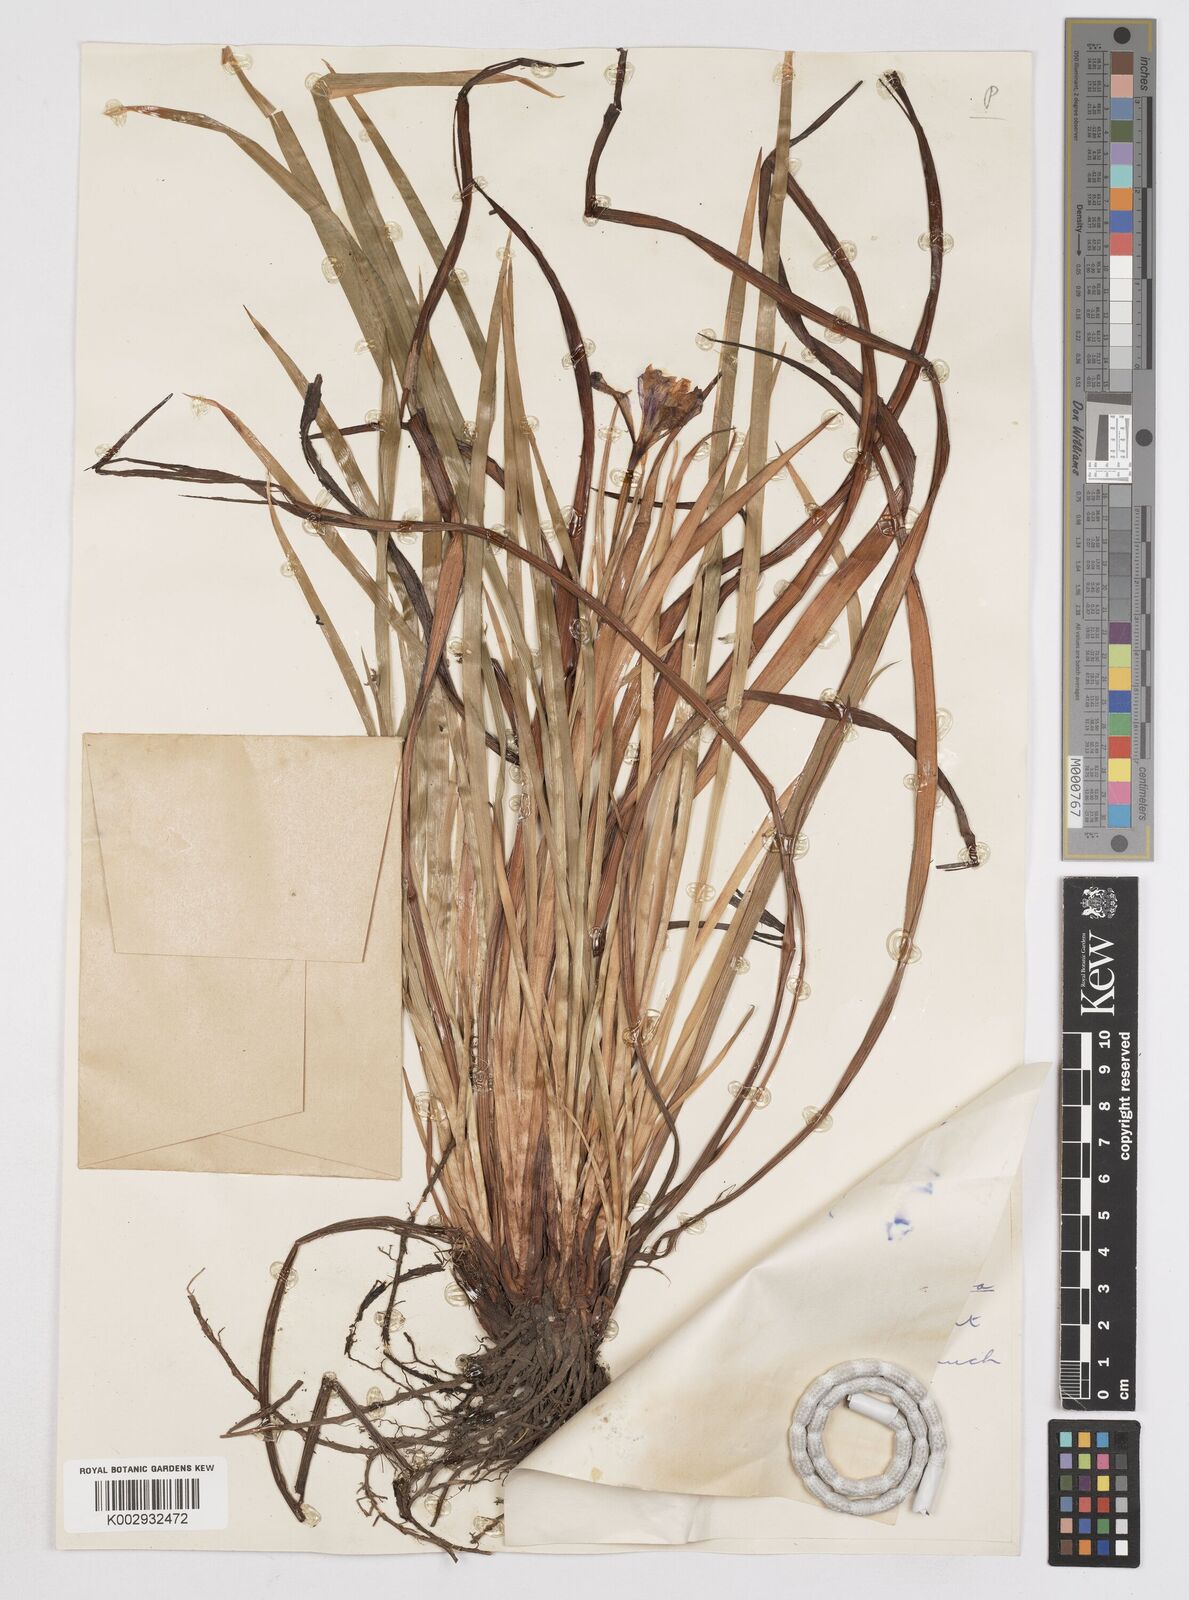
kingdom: Plantae
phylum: Tracheophyta
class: Liliopsida
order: Asparagales
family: Iridaceae
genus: Iris
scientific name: Iris tenax
